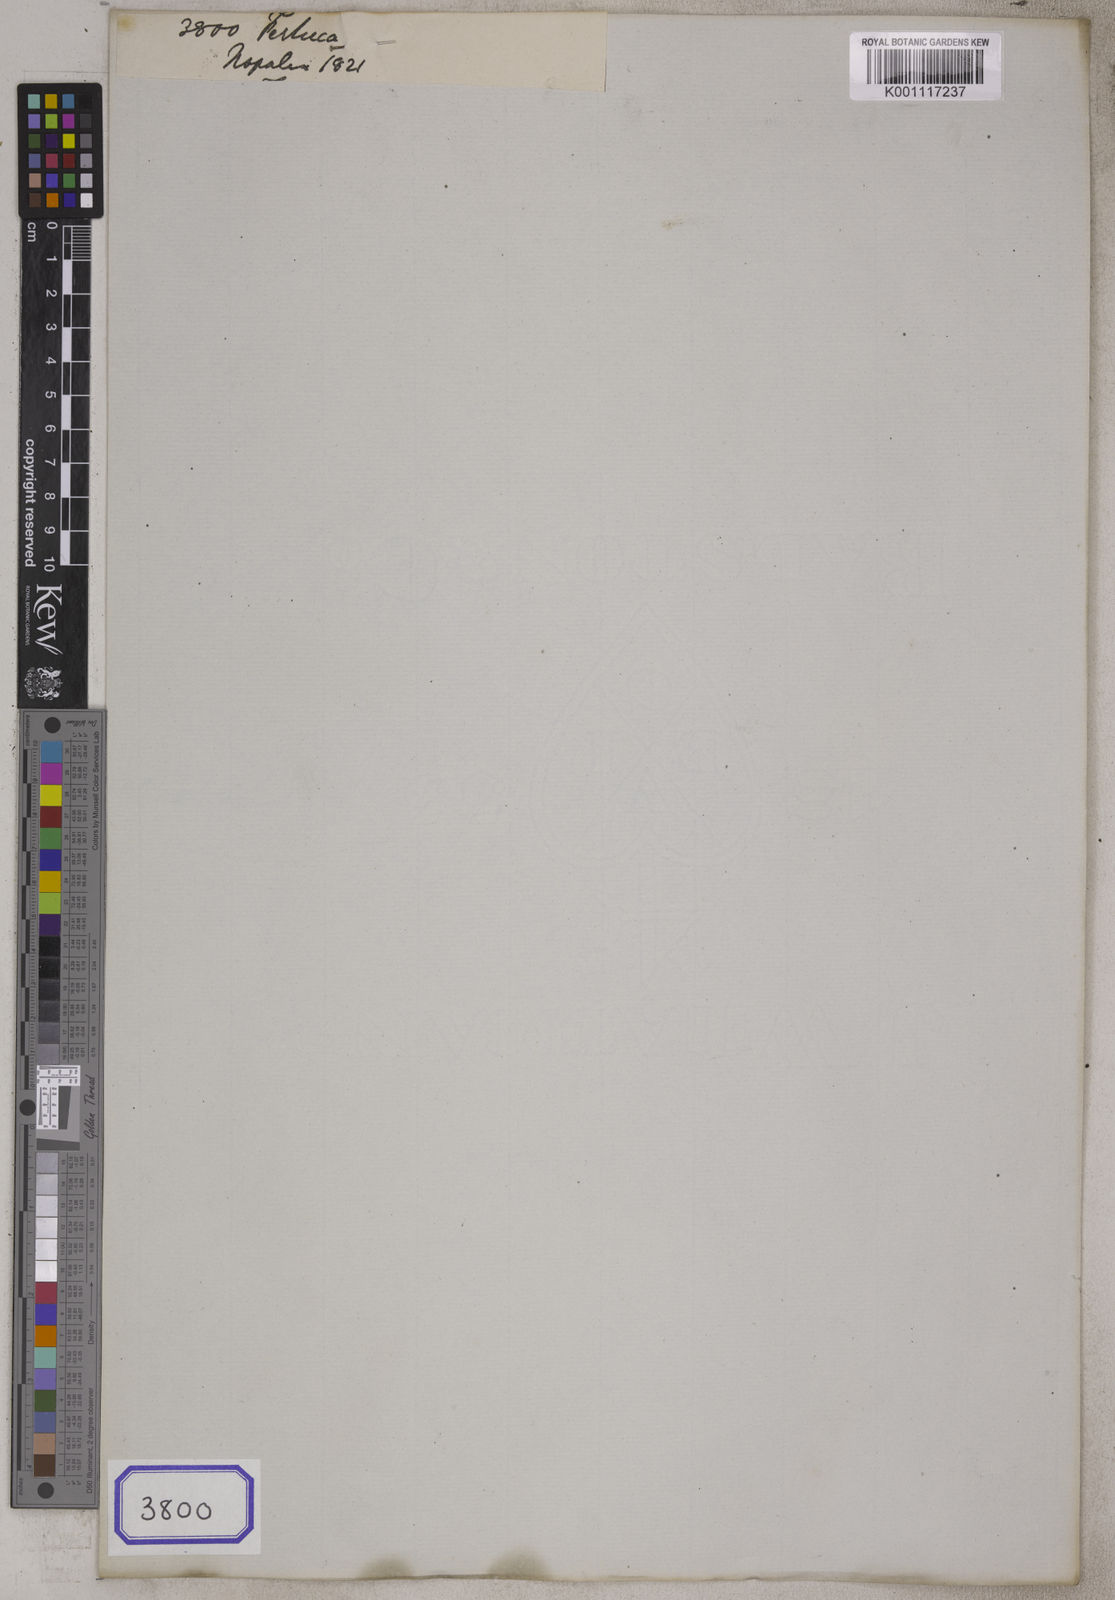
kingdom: Plantae
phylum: Tracheophyta
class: Liliopsida
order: Poales
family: Poaceae
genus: Festuca
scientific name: Festuca
